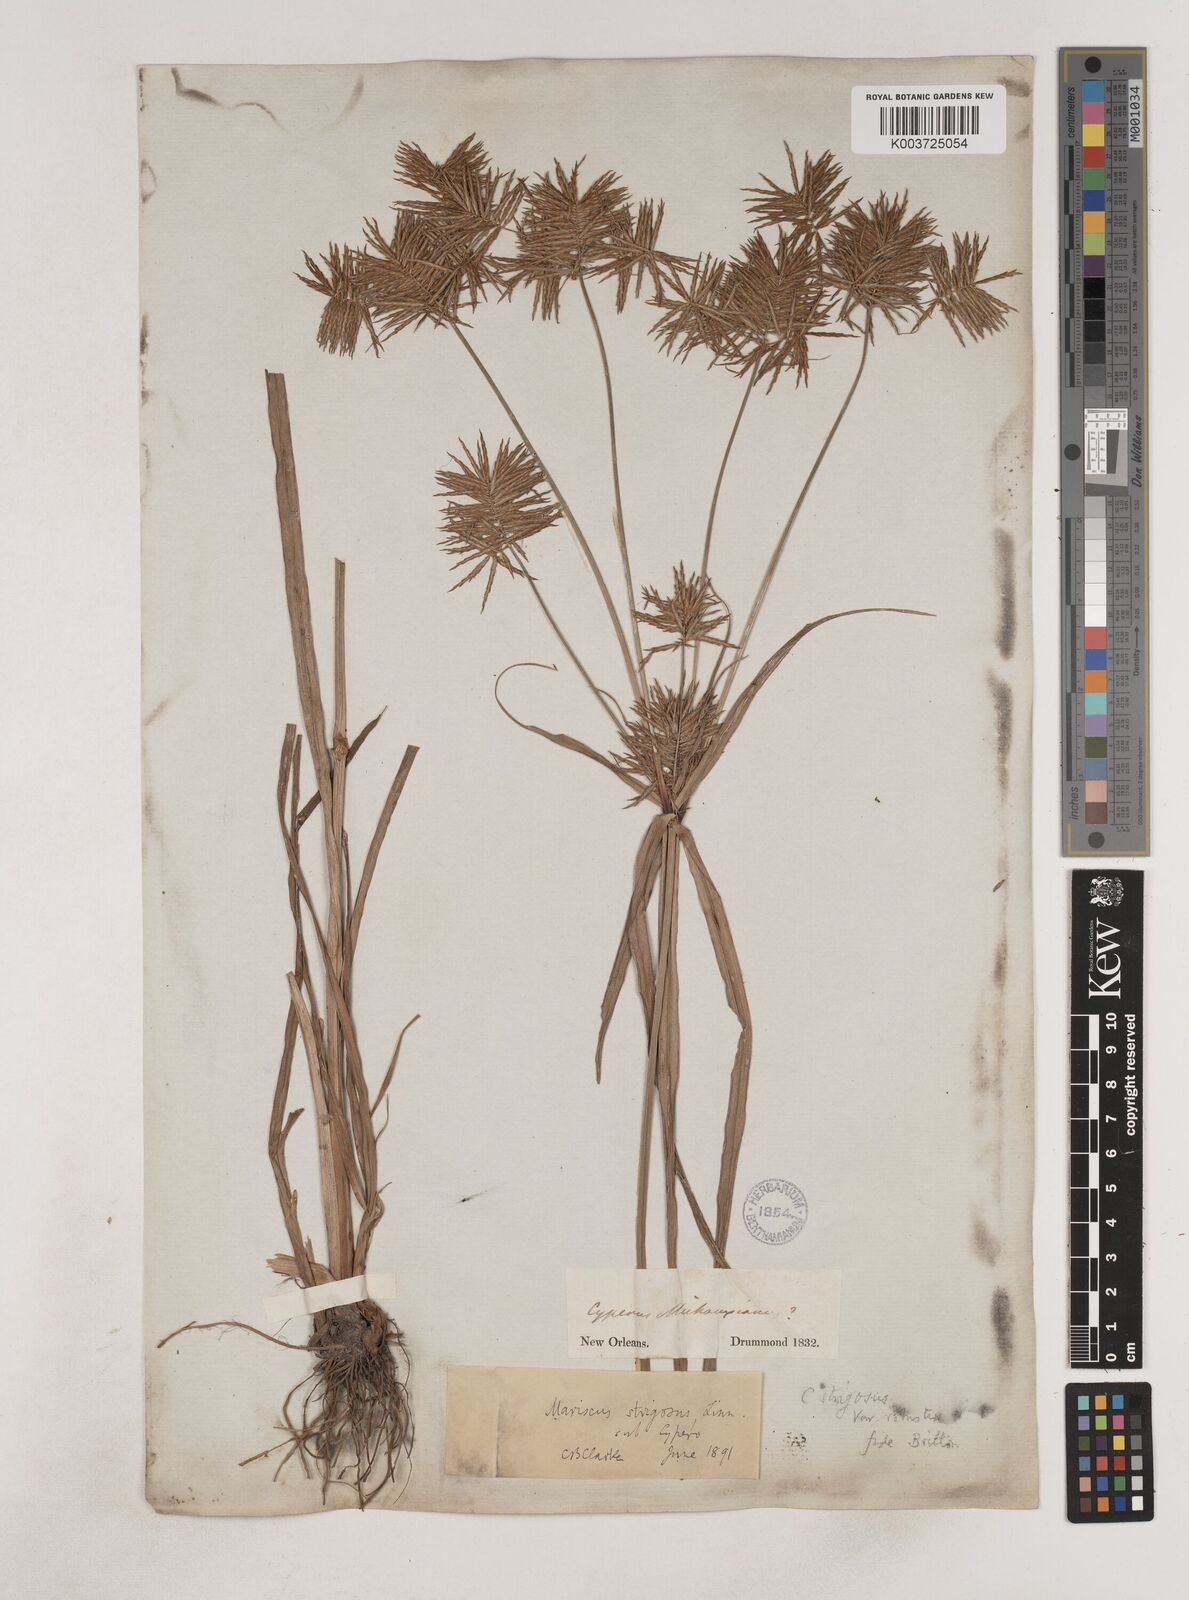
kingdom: Plantae
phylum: Tracheophyta
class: Liliopsida
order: Poales
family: Cyperaceae
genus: Cyperus
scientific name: Cyperus strigosus
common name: False nutsedge
